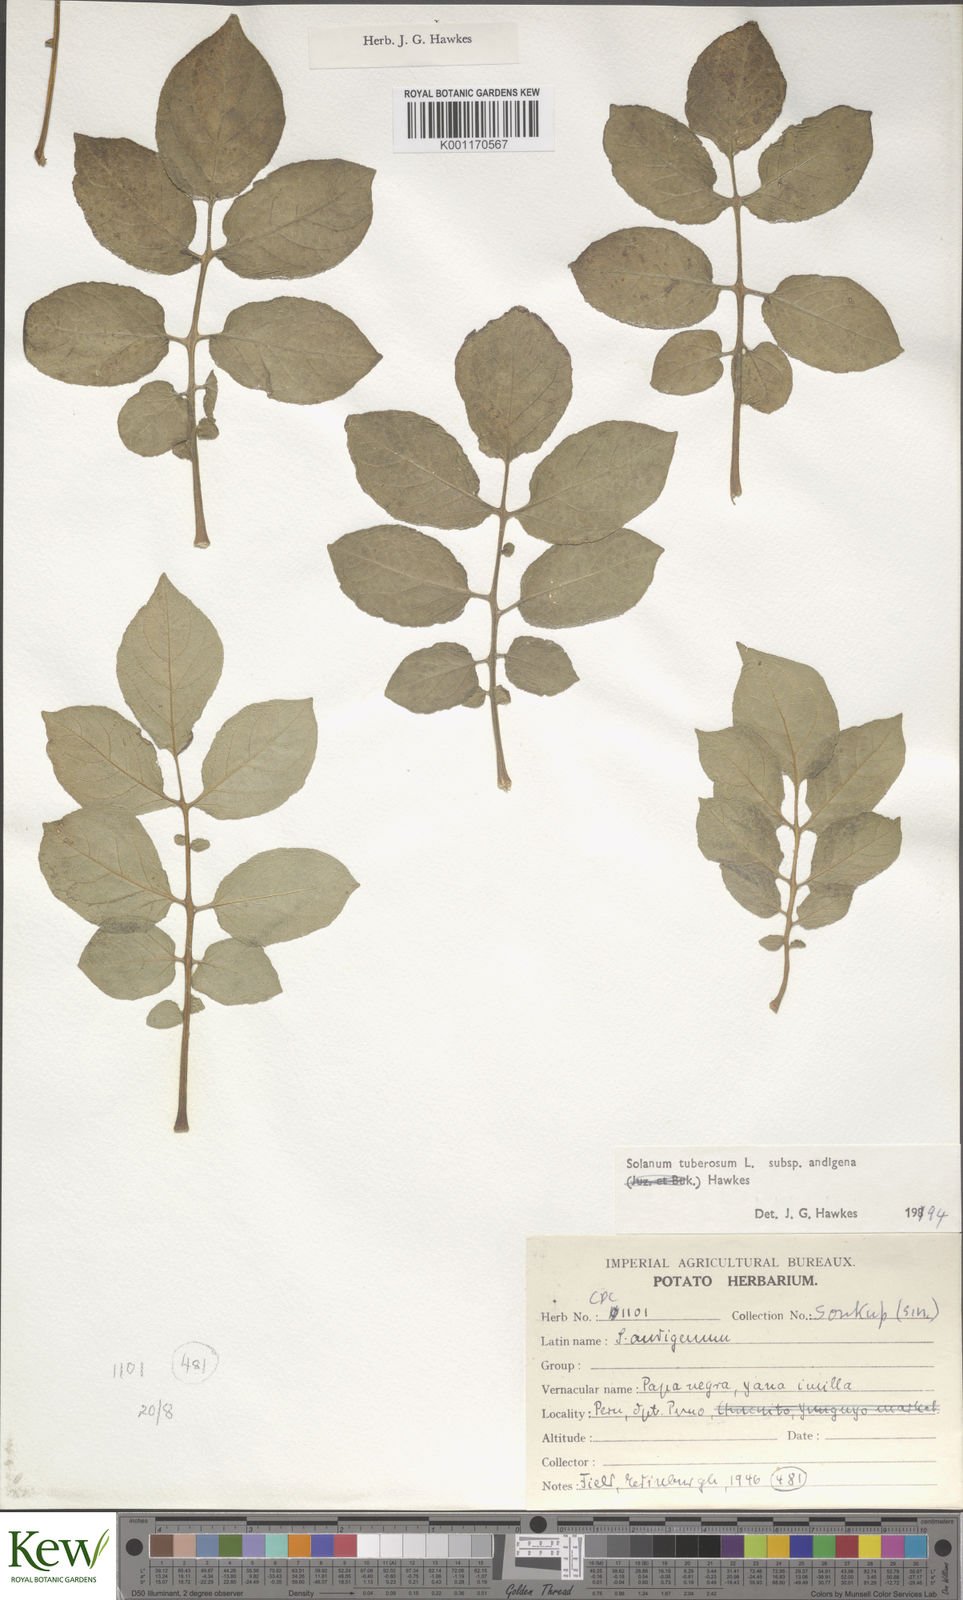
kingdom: Plantae
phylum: Tracheophyta
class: Magnoliopsida
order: Solanales
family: Solanaceae
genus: Solanum
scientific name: Solanum tuberosum
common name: Potato
